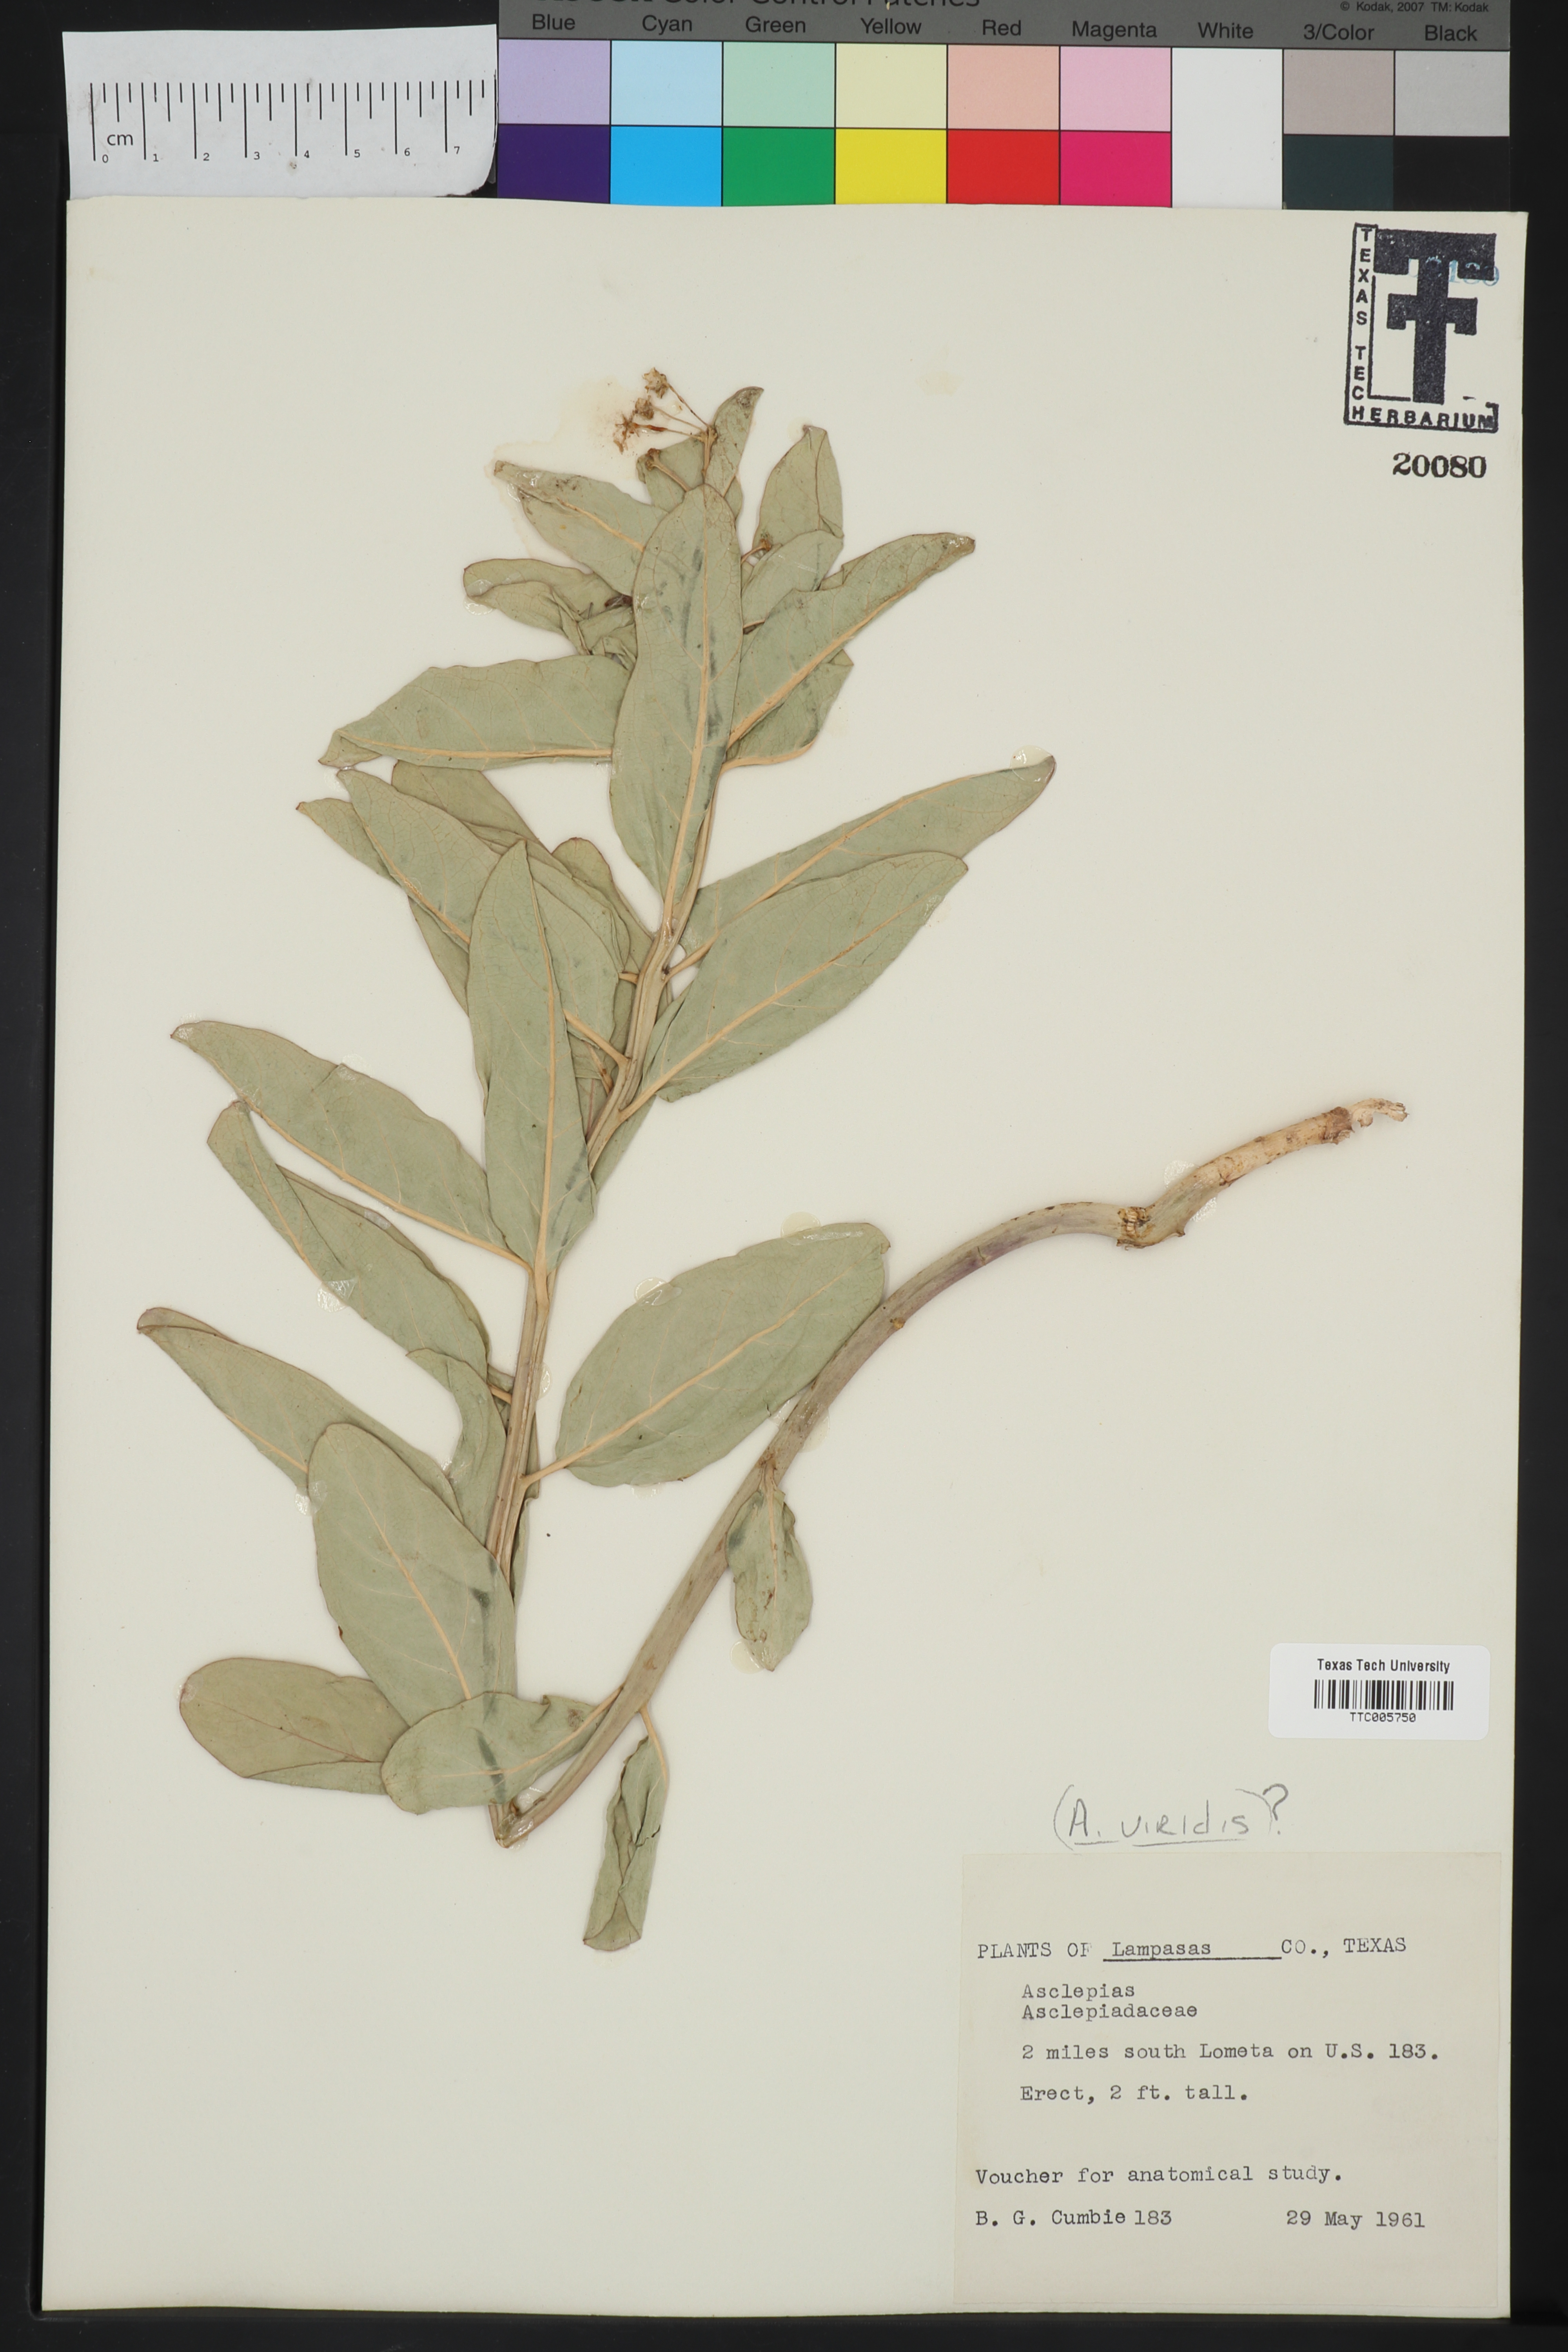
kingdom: Plantae
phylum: Tracheophyta
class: Magnoliopsida
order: Gentianales
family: Apocynaceae
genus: Asclepias
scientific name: Asclepias viridis
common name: Antelope-horns
